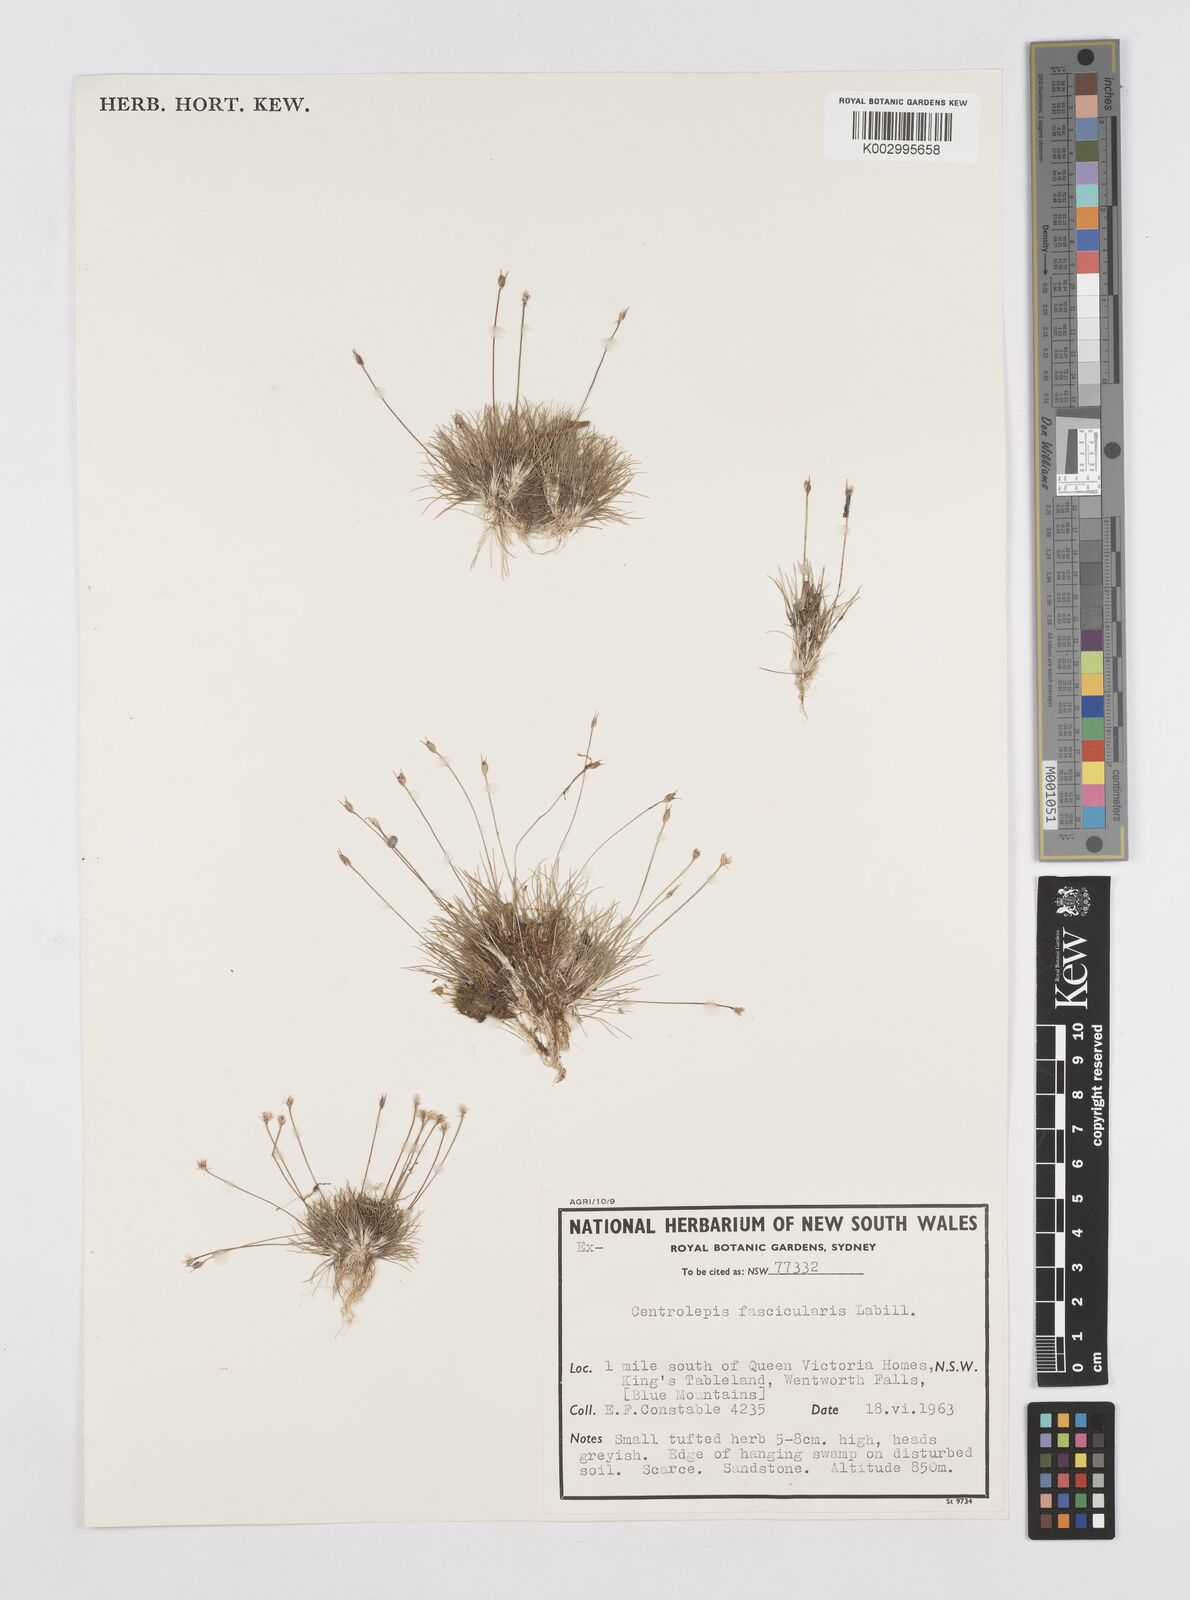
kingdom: Plantae
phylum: Tracheophyta
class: Liliopsida
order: Poales
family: Restionaceae
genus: Centrolepis
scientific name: Centrolepis fascicularis
